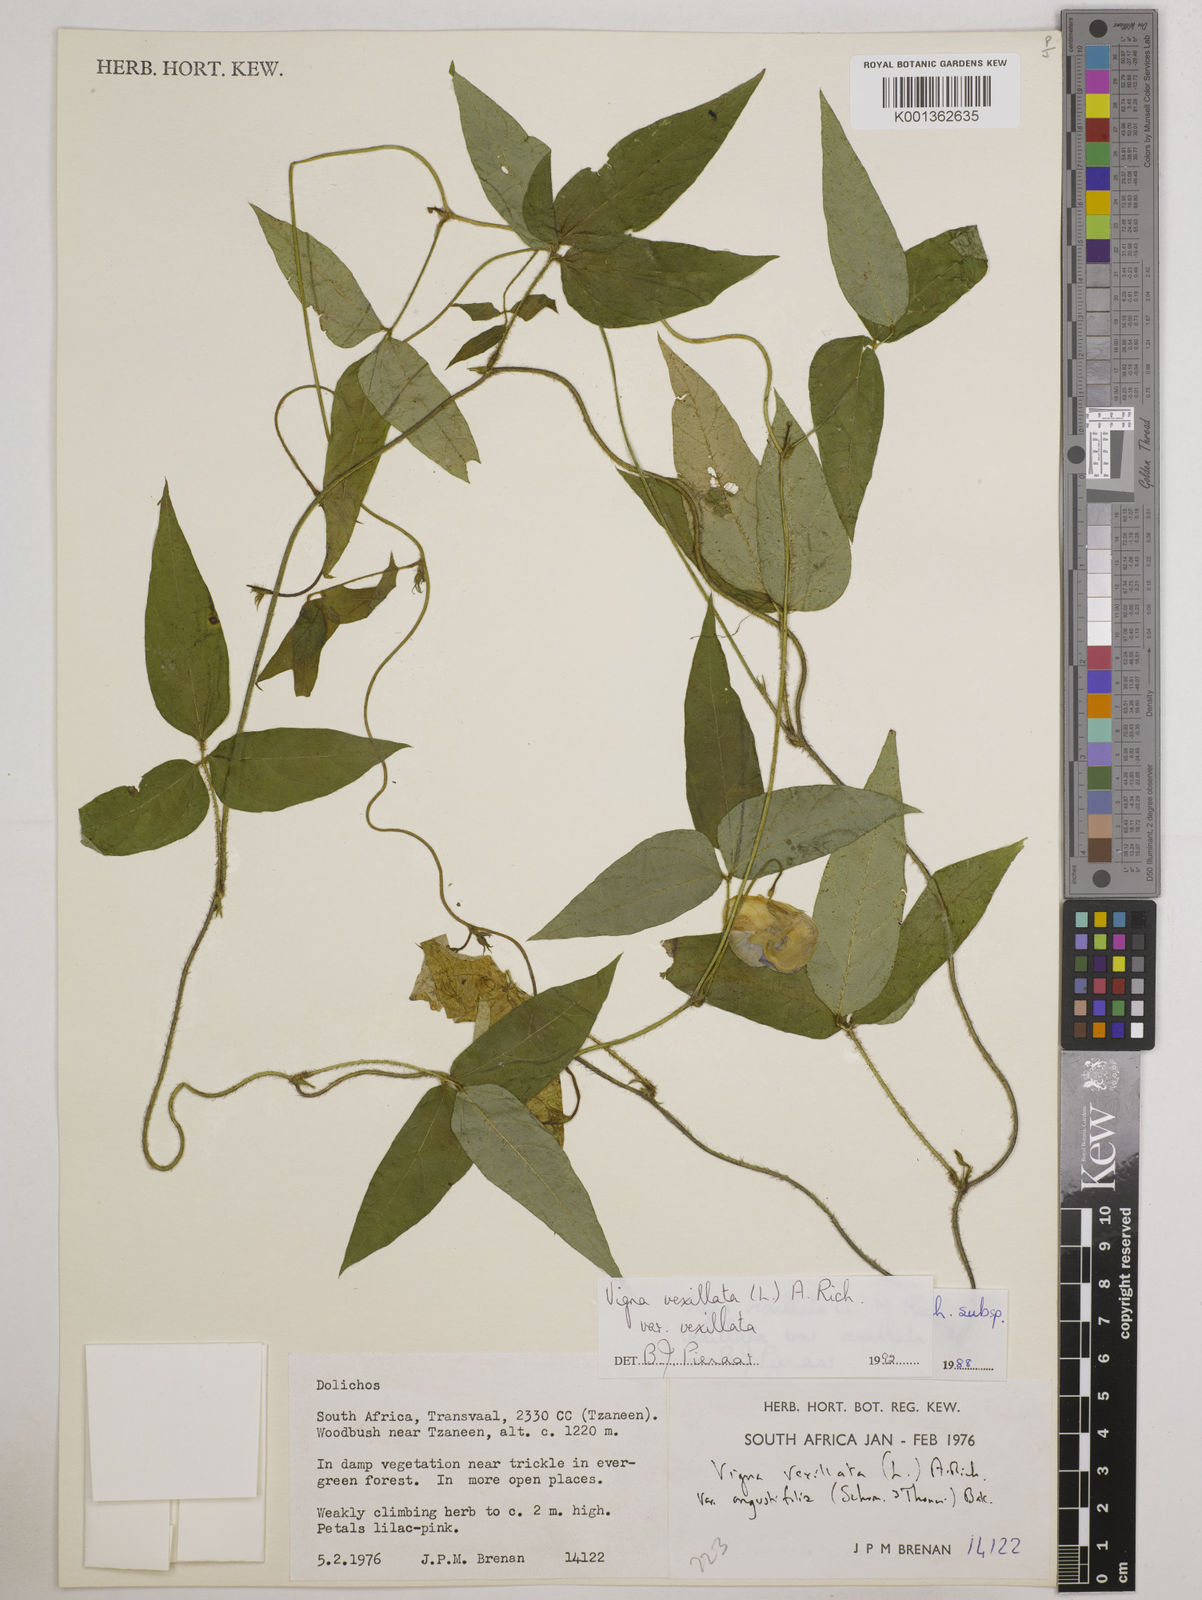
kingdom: Plantae
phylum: Tracheophyta
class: Magnoliopsida
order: Fabales
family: Fabaceae
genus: Vigna
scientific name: Vigna vexillata
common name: Zombi pea
